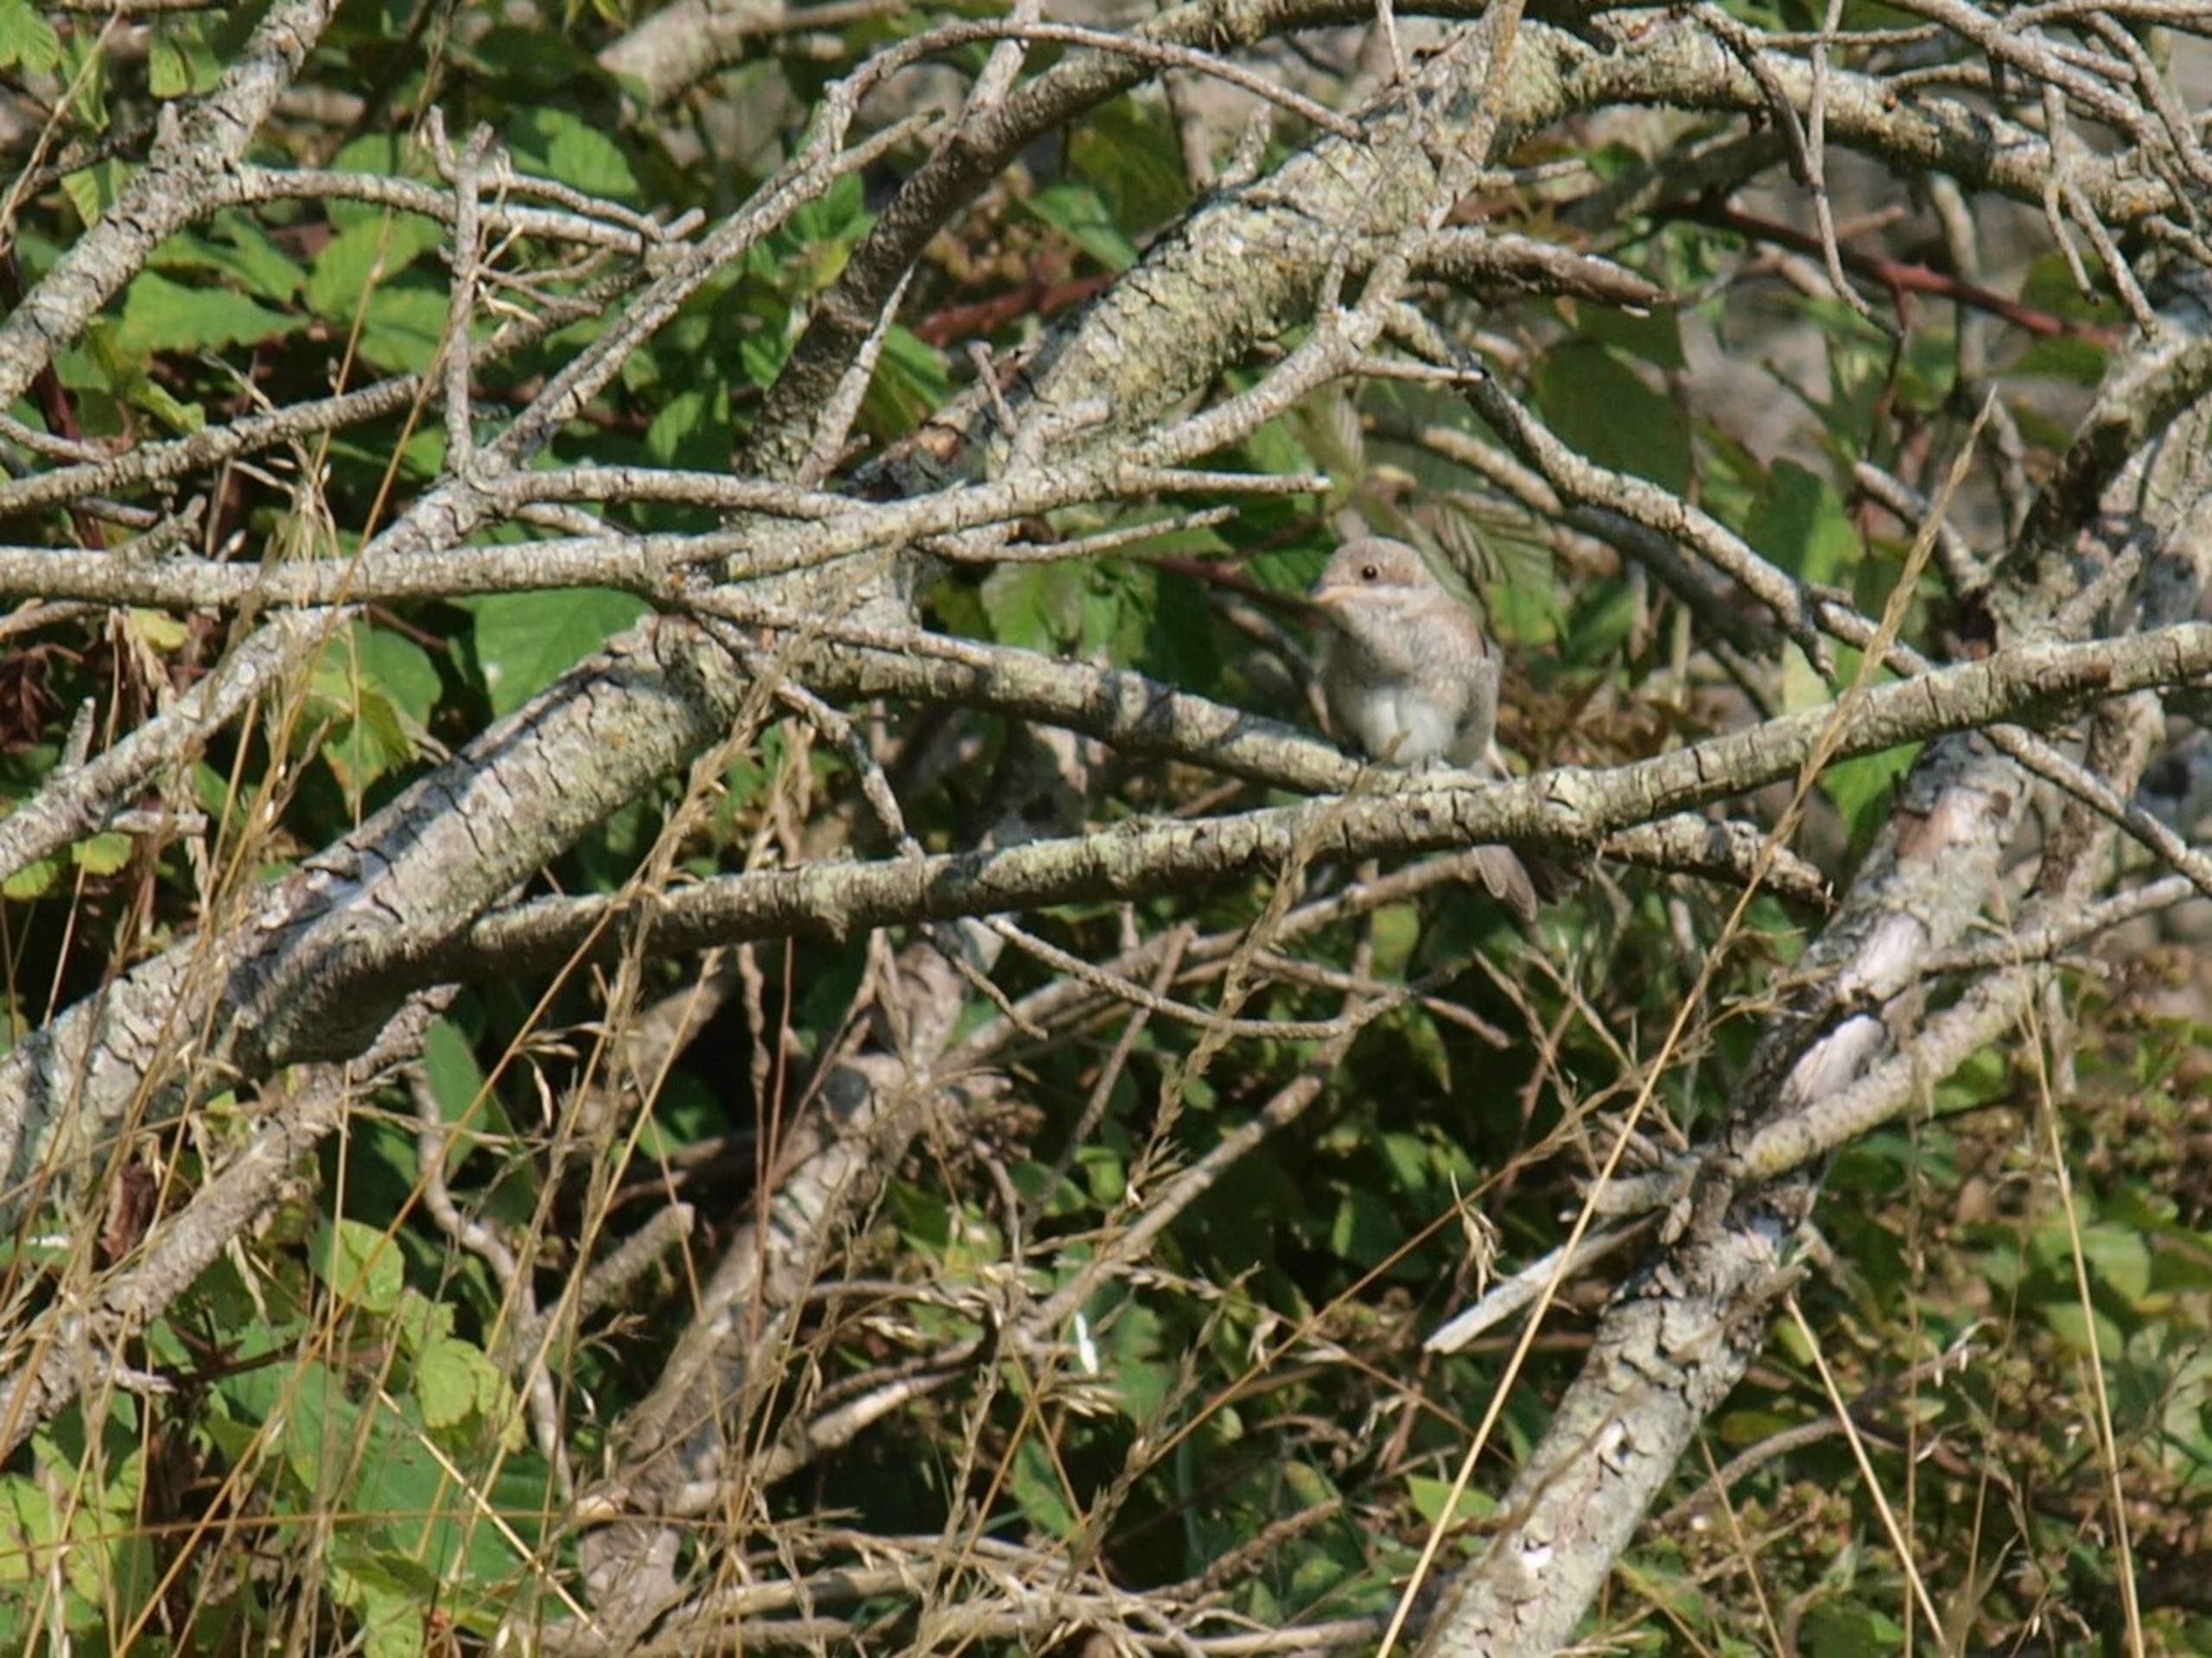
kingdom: Animalia
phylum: Chordata
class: Aves
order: Passeriformes
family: Laniidae
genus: Lanius
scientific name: Lanius collurio
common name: Rødrygget tornskade
